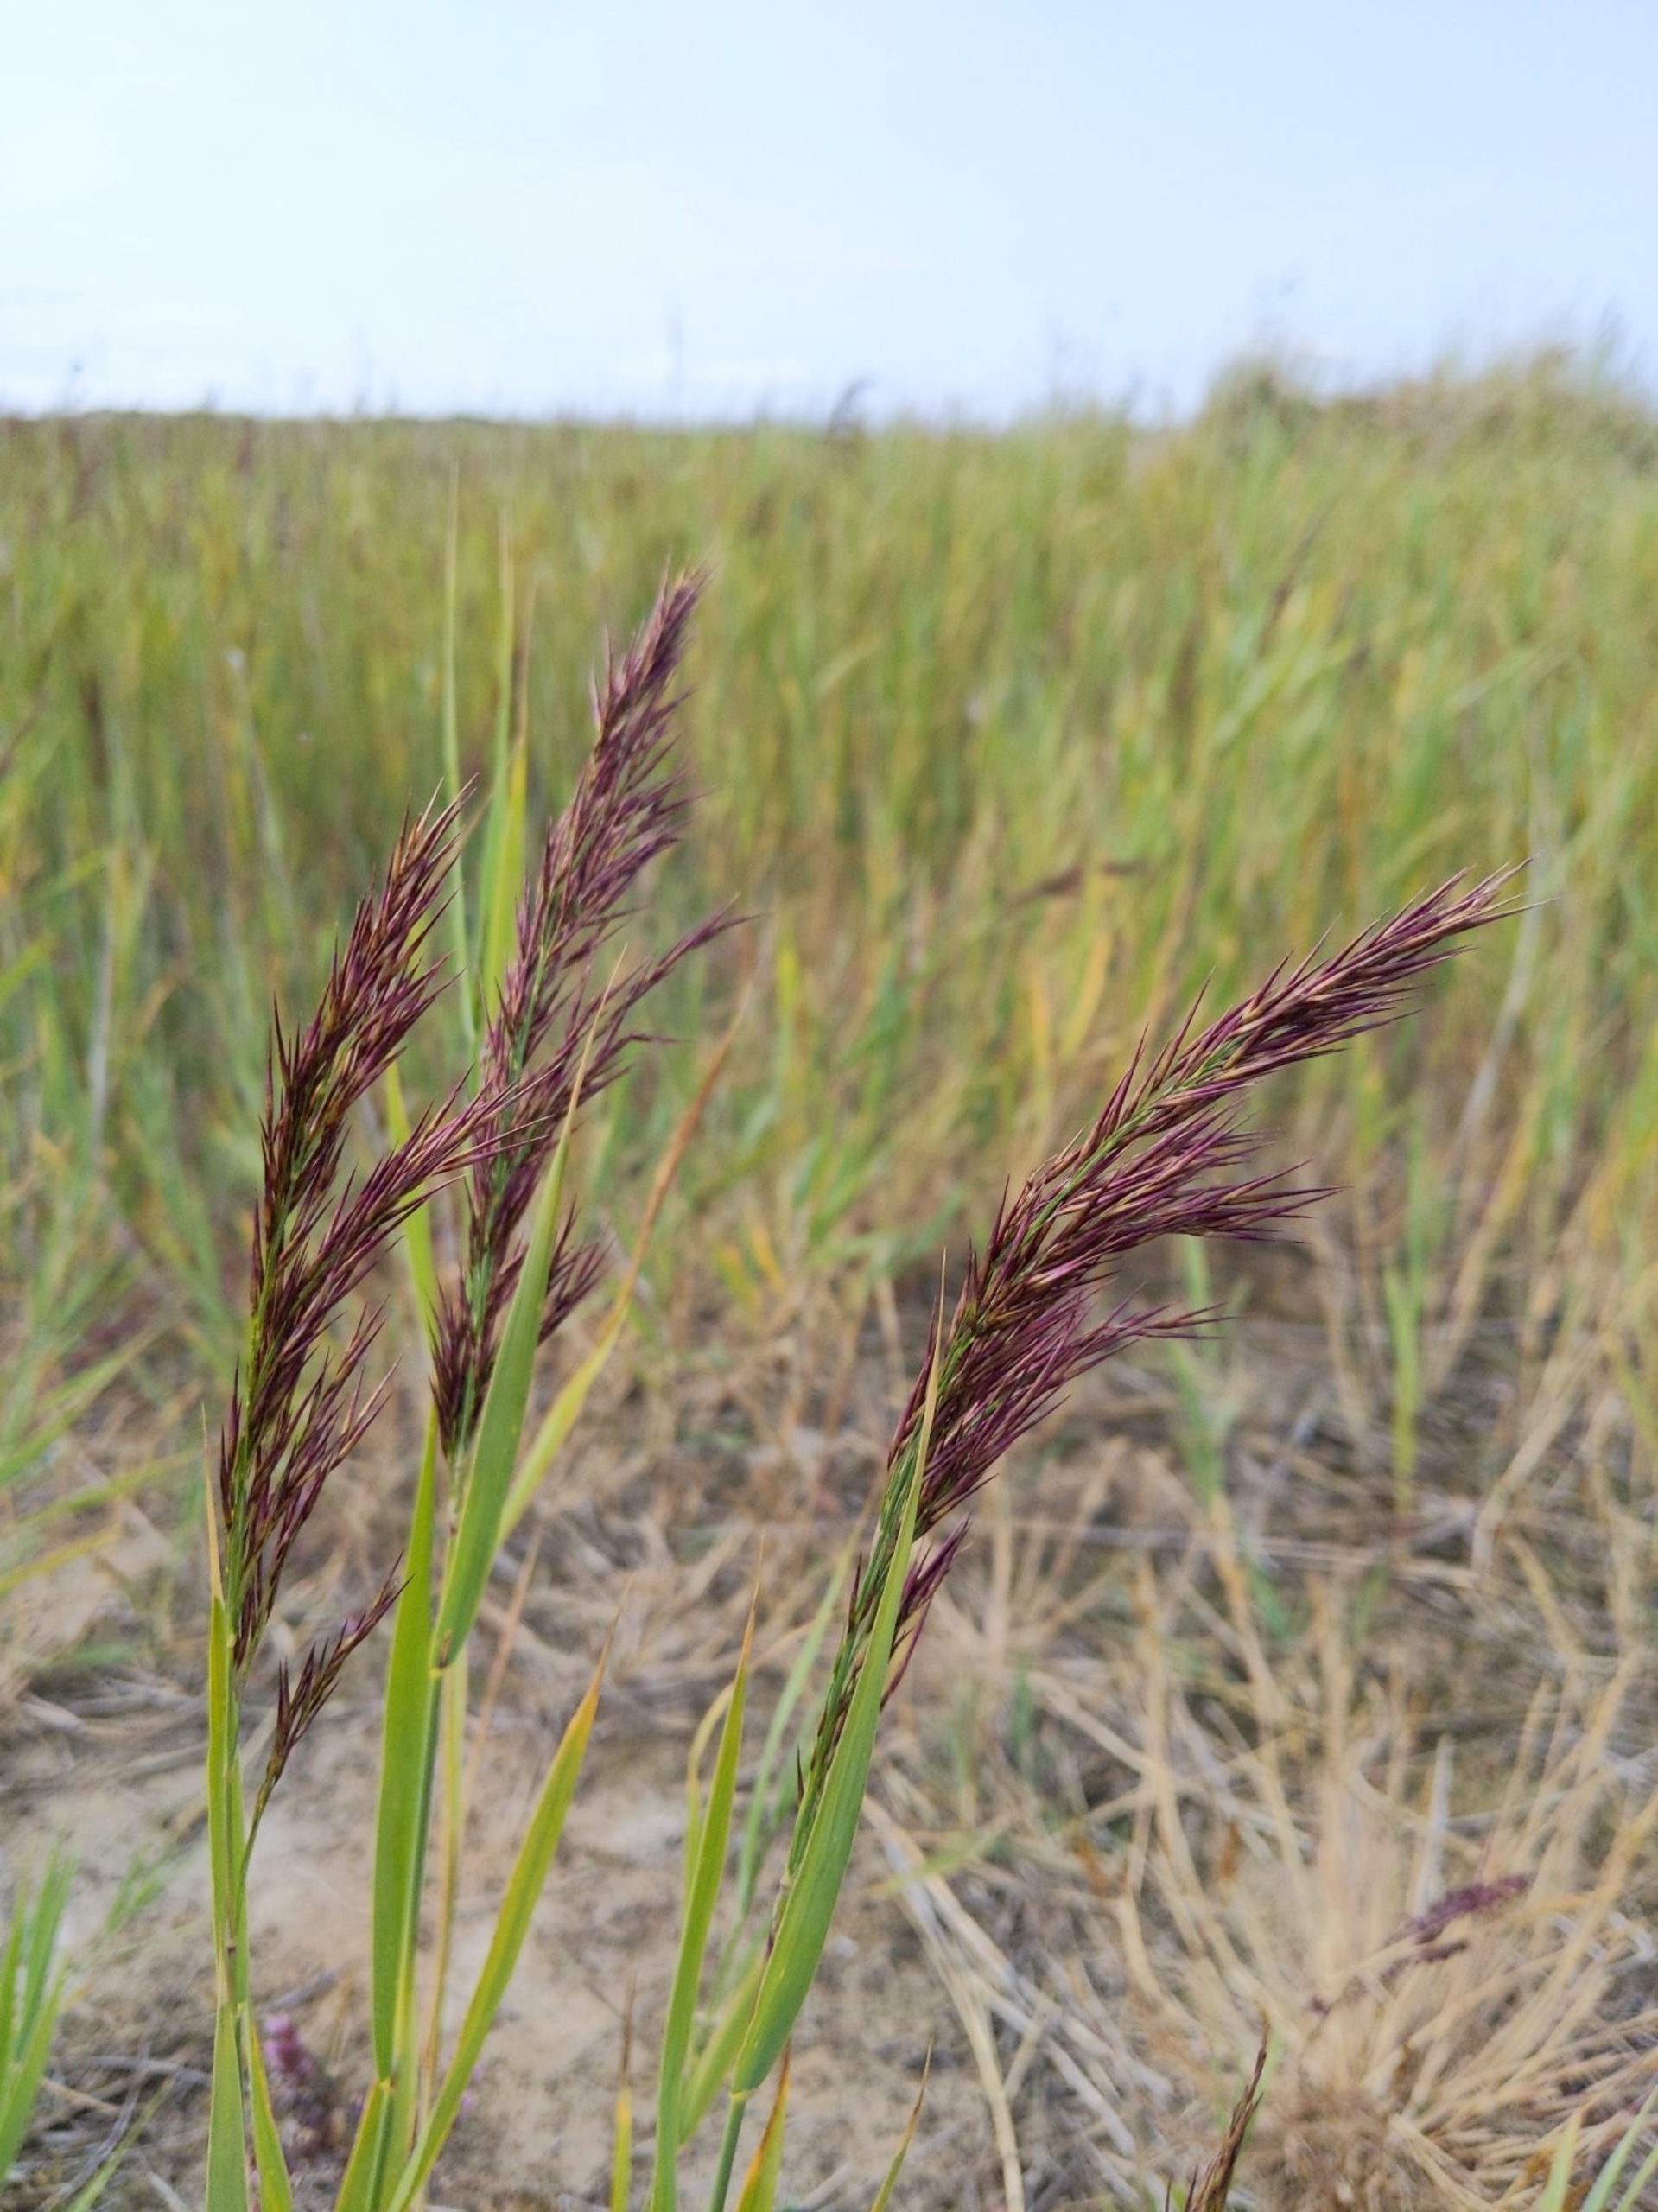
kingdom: Plantae
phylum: Tracheophyta
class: Liliopsida
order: Poales
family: Poaceae
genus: Phragmites
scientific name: Phragmites australis
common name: Tagrør
